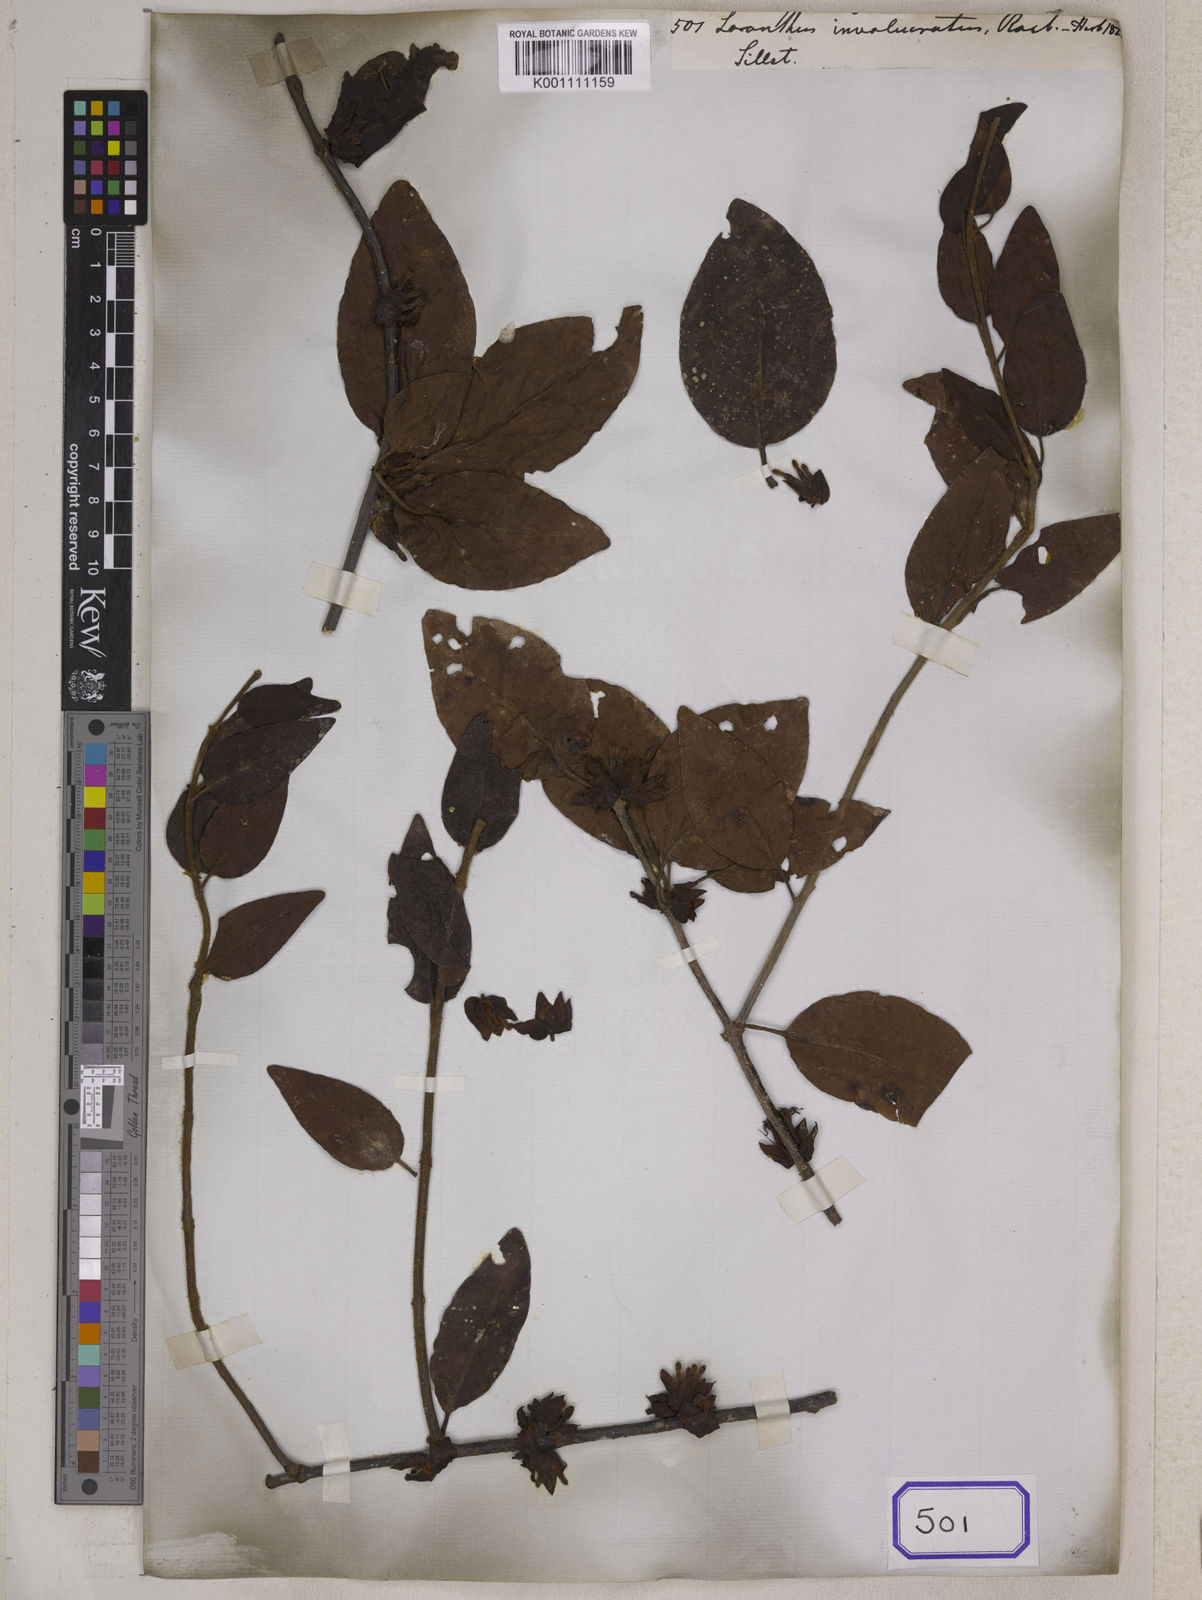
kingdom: Plantae
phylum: Tracheophyta
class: Magnoliopsida
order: Santalales
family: Loranthaceae
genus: Tolypanthus
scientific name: Tolypanthus involucratus
